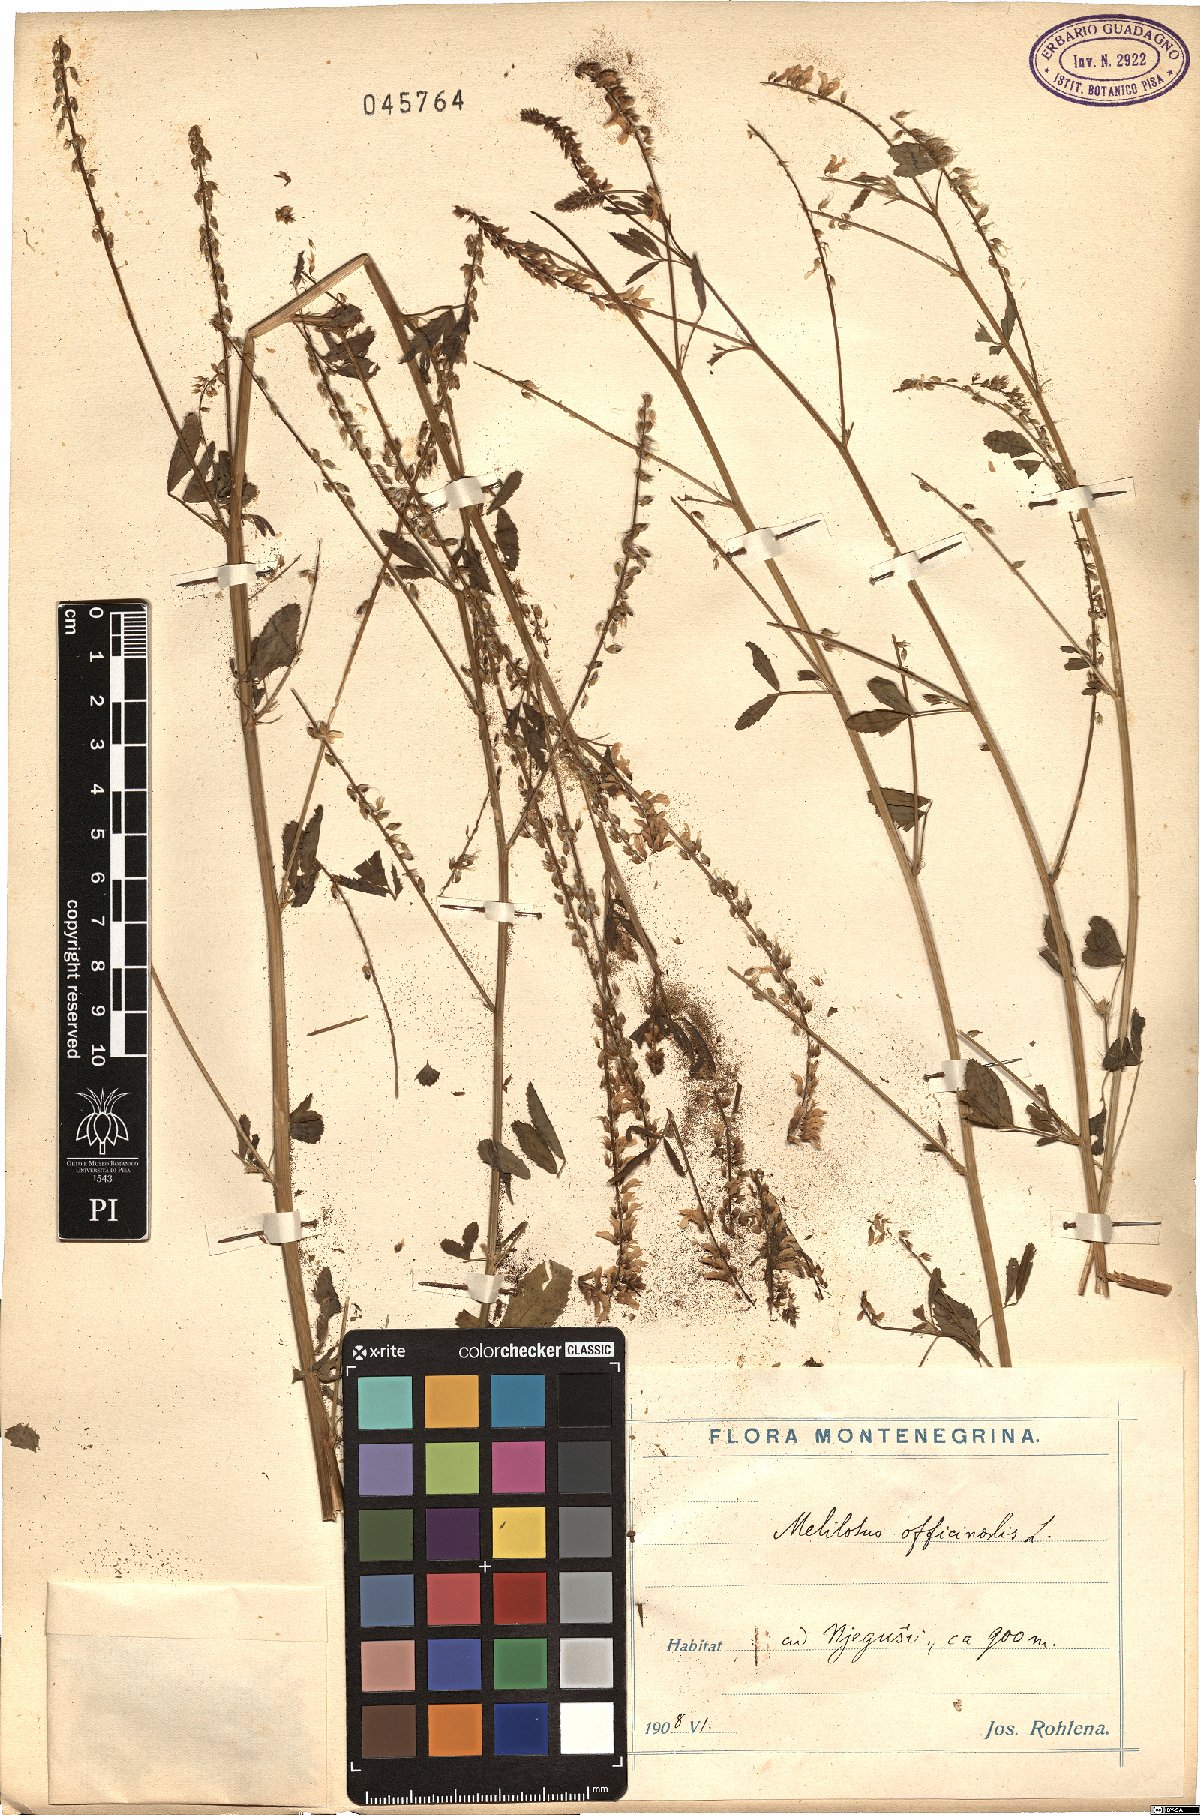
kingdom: Plantae
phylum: Tracheophyta
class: Magnoliopsida
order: Fabales
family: Fabaceae
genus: Melilotus
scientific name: Melilotus officinalis
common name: Sweetclover
